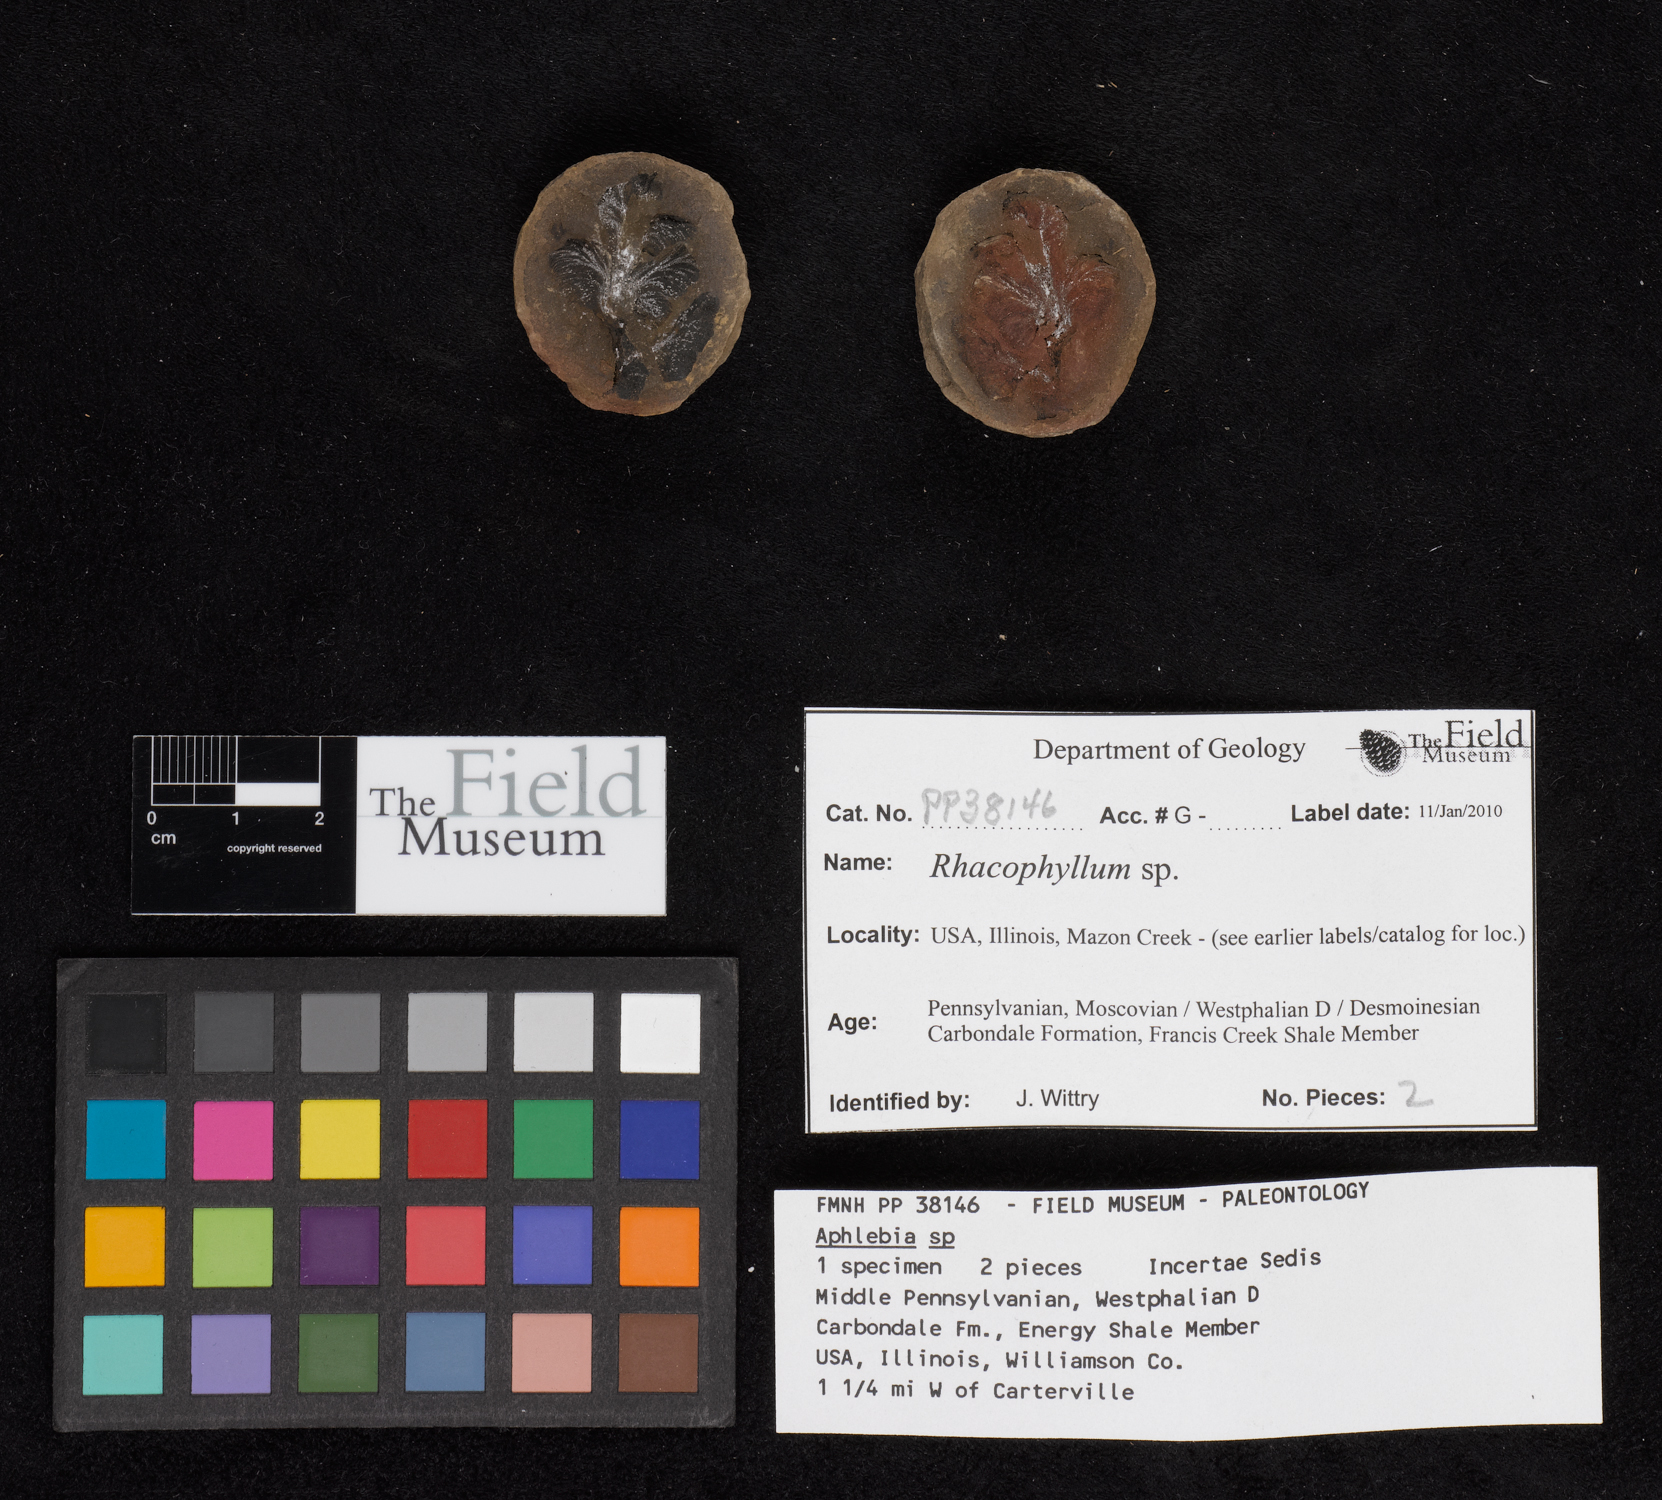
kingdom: Plantae
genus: Rhacophyllum
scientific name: Rhacophyllum
